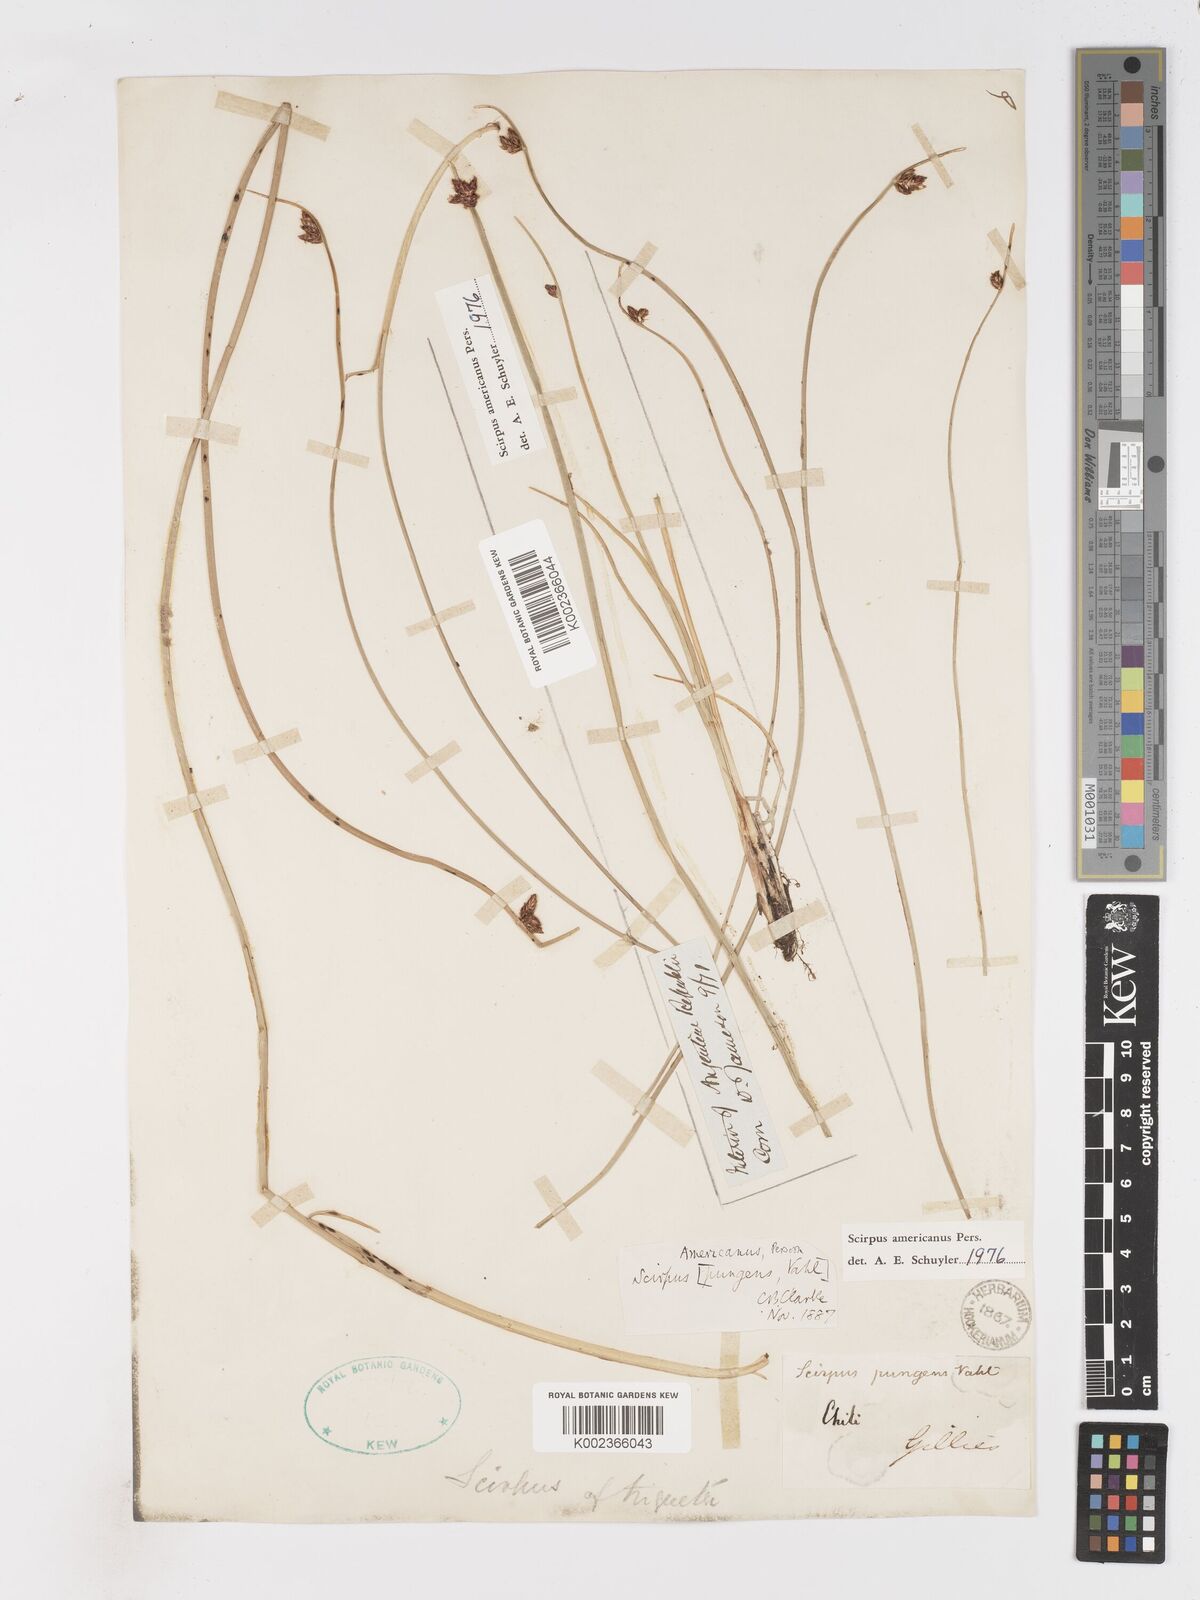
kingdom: Plantae
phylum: Tracheophyta
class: Liliopsida
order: Poales
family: Cyperaceae
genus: Schoenoplectus
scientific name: Schoenoplectus americanus
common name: American three-square bulrush
